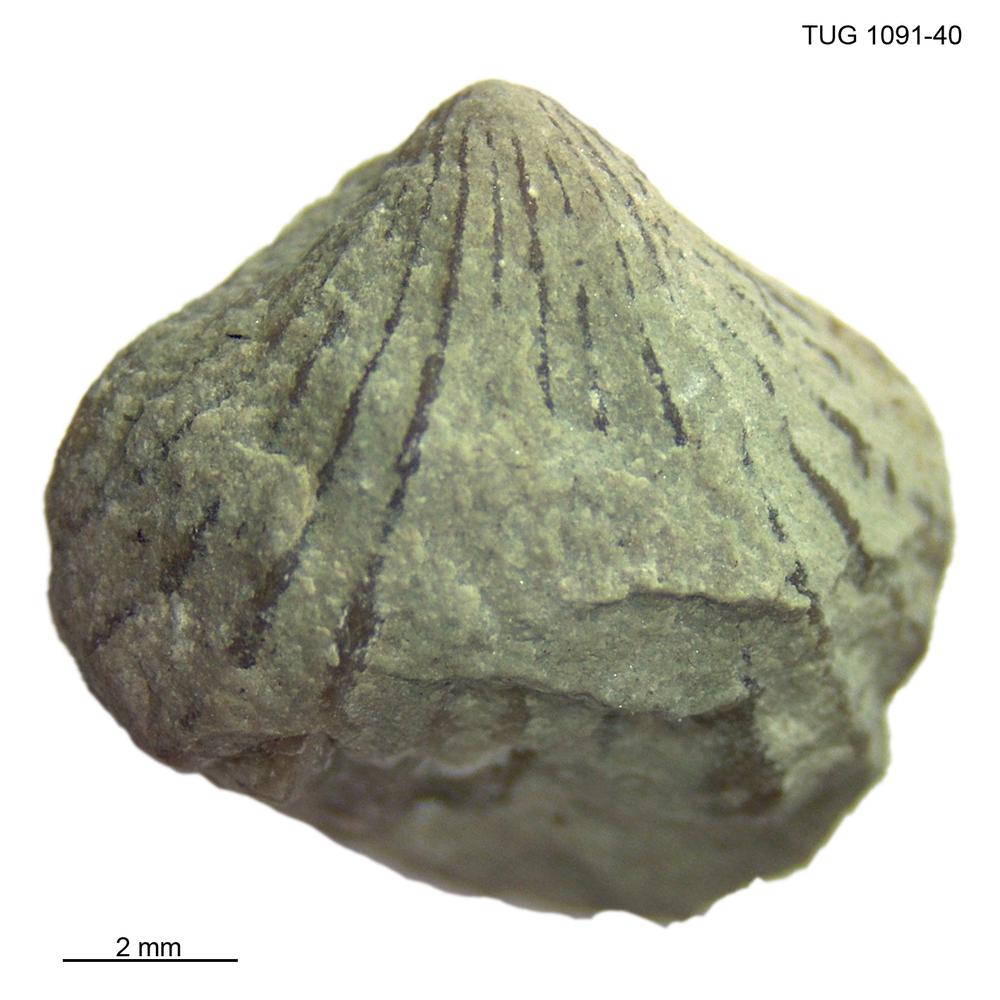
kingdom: Animalia
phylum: Brachiopoda
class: Rhynchonellata
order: Rhynchonellida
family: Rhynchotrematidae
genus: Rhynchotrema
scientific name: Rhynchotrema
